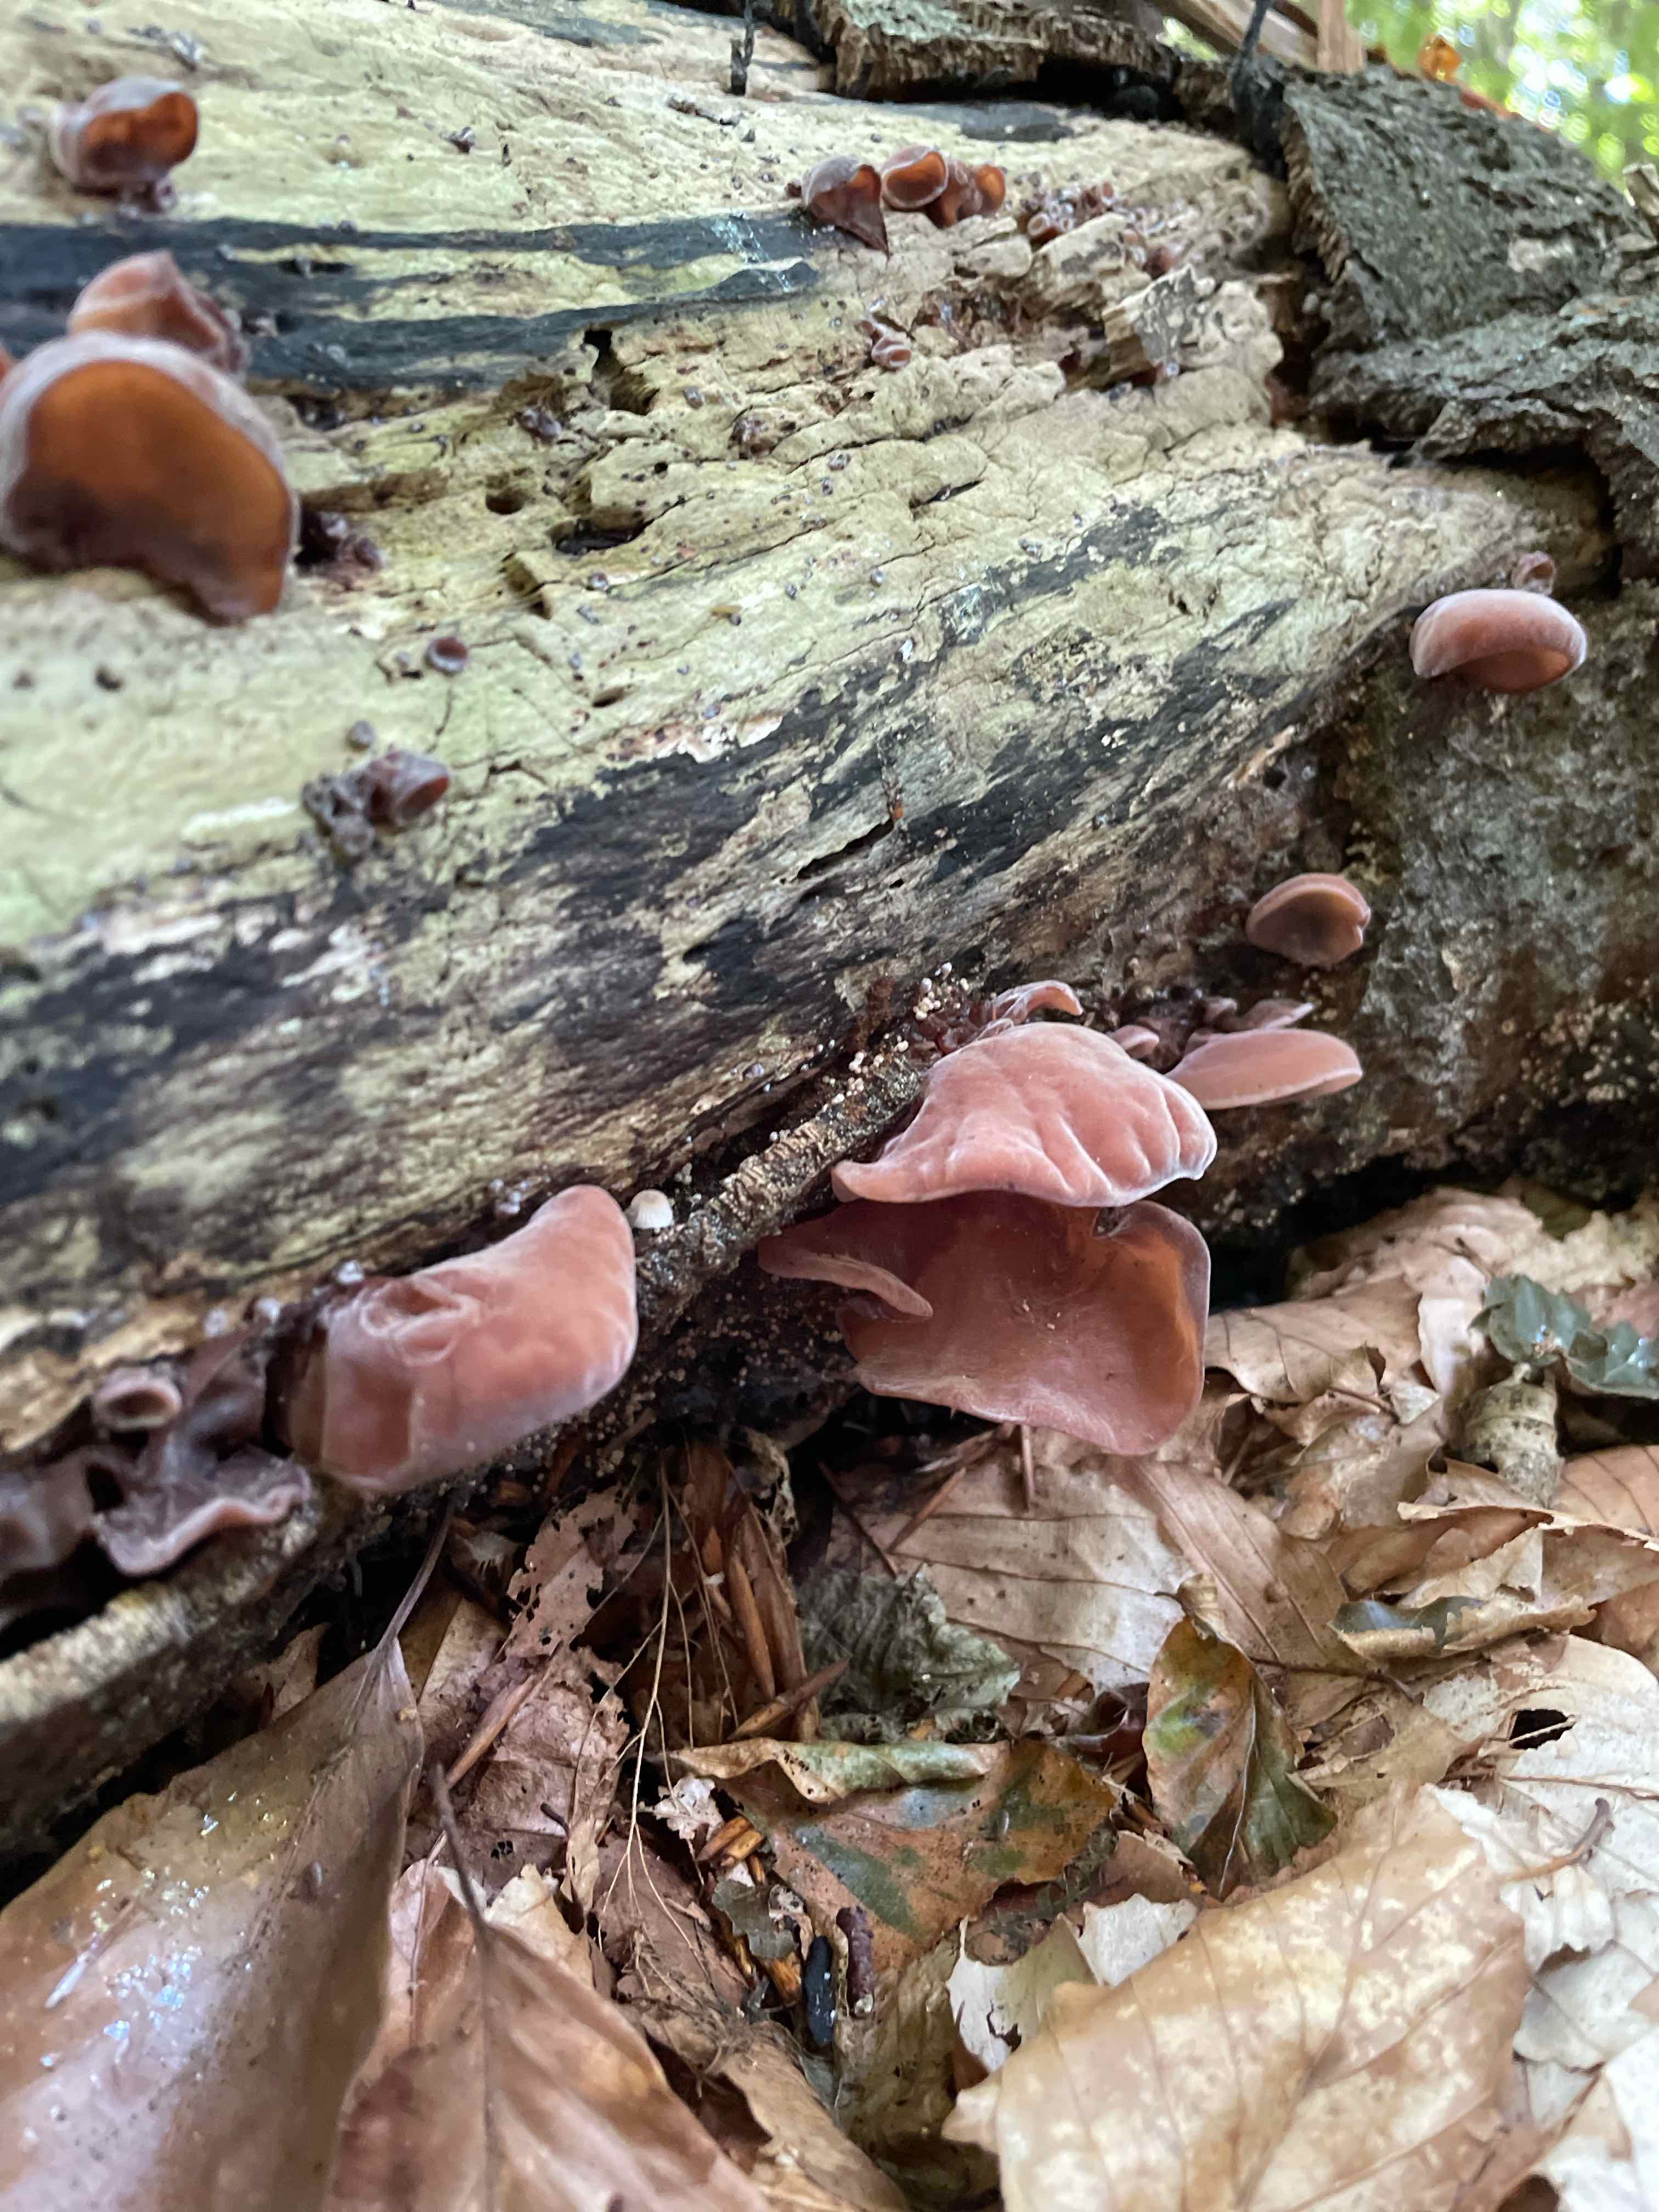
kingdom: Fungi
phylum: Basidiomycota
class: Agaricomycetes
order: Auriculariales
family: Auriculariaceae
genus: Auricularia
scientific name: Auricularia auricula-judae
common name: almindelig judasøre
